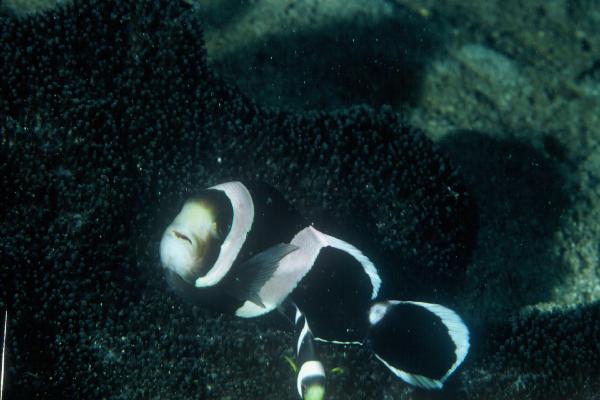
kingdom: Animalia
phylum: Chordata
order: Perciformes
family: Pomacentridae
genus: Amphiprion
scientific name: Amphiprion polymnus
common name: Saddleback anemonefish
